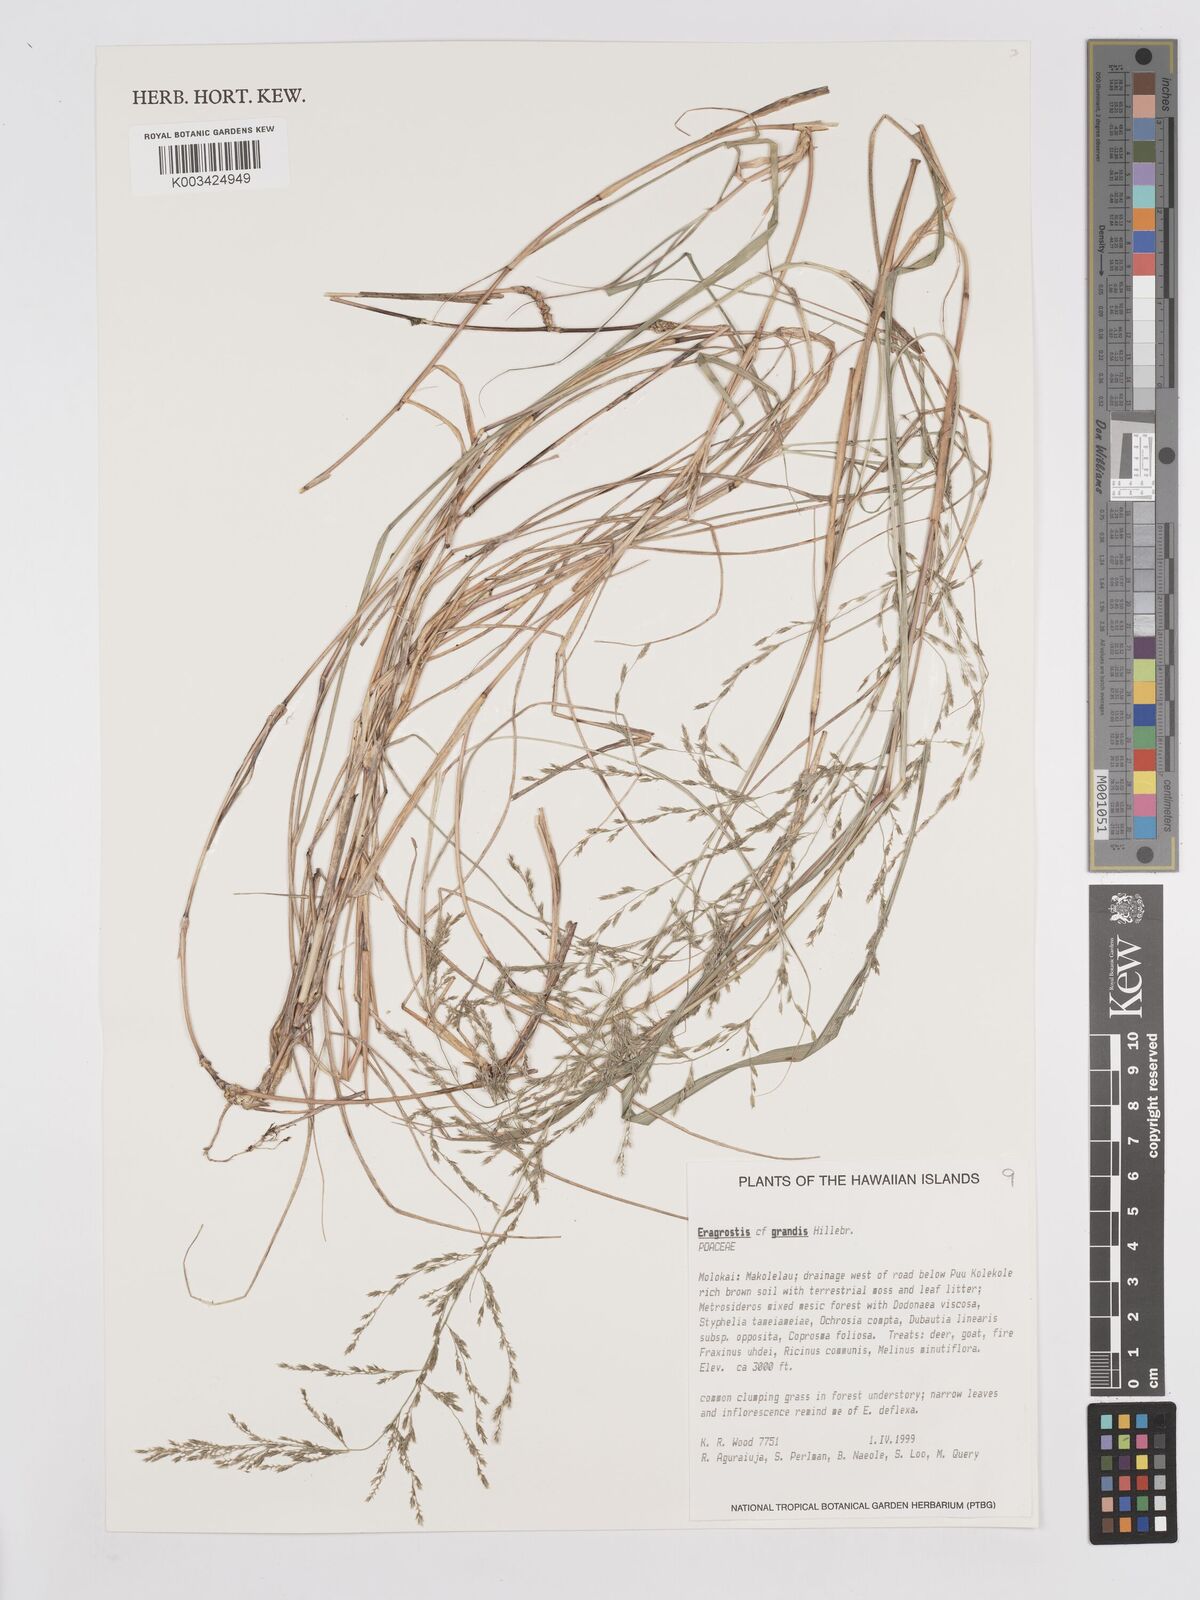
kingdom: Plantae
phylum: Tracheophyta
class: Liliopsida
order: Poales
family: Poaceae
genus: Eragrostis
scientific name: Eragrostis grandis
